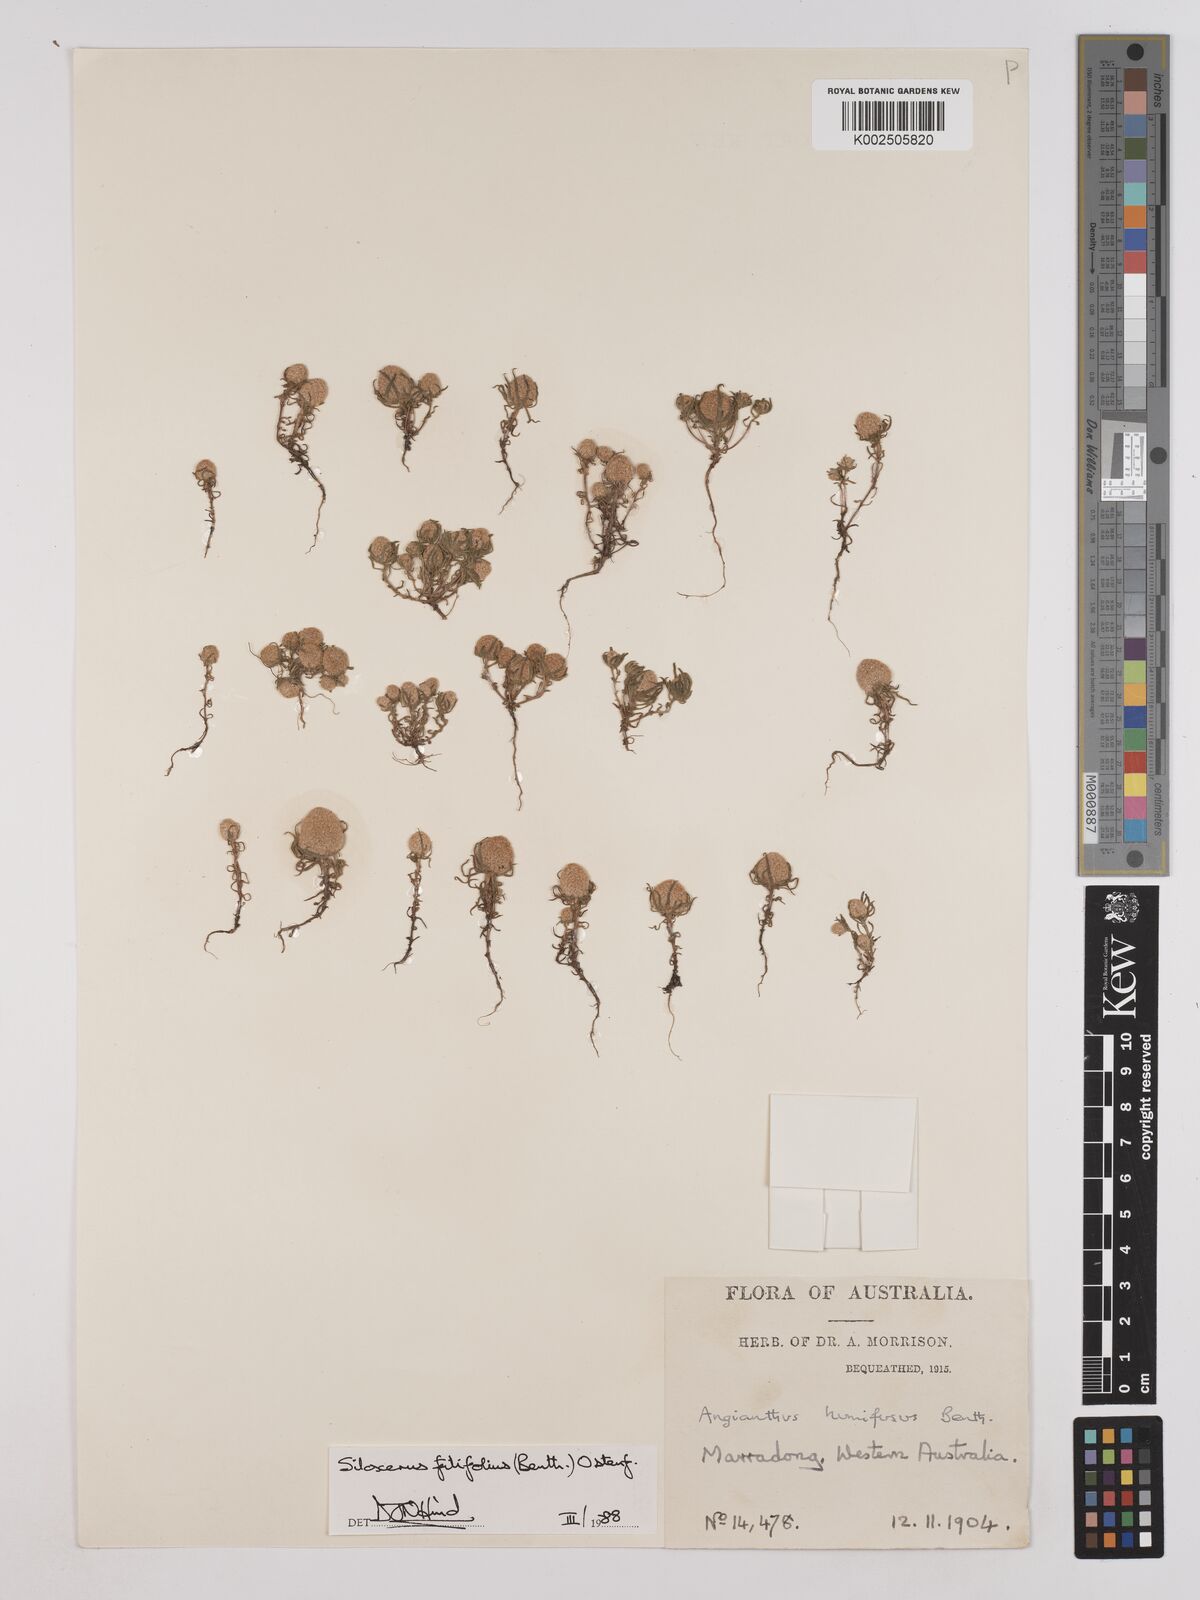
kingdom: Plantae
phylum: Tracheophyta
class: Magnoliopsida
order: Asterales
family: Asteraceae
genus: Siloxerus
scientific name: Siloxerus filifolius
